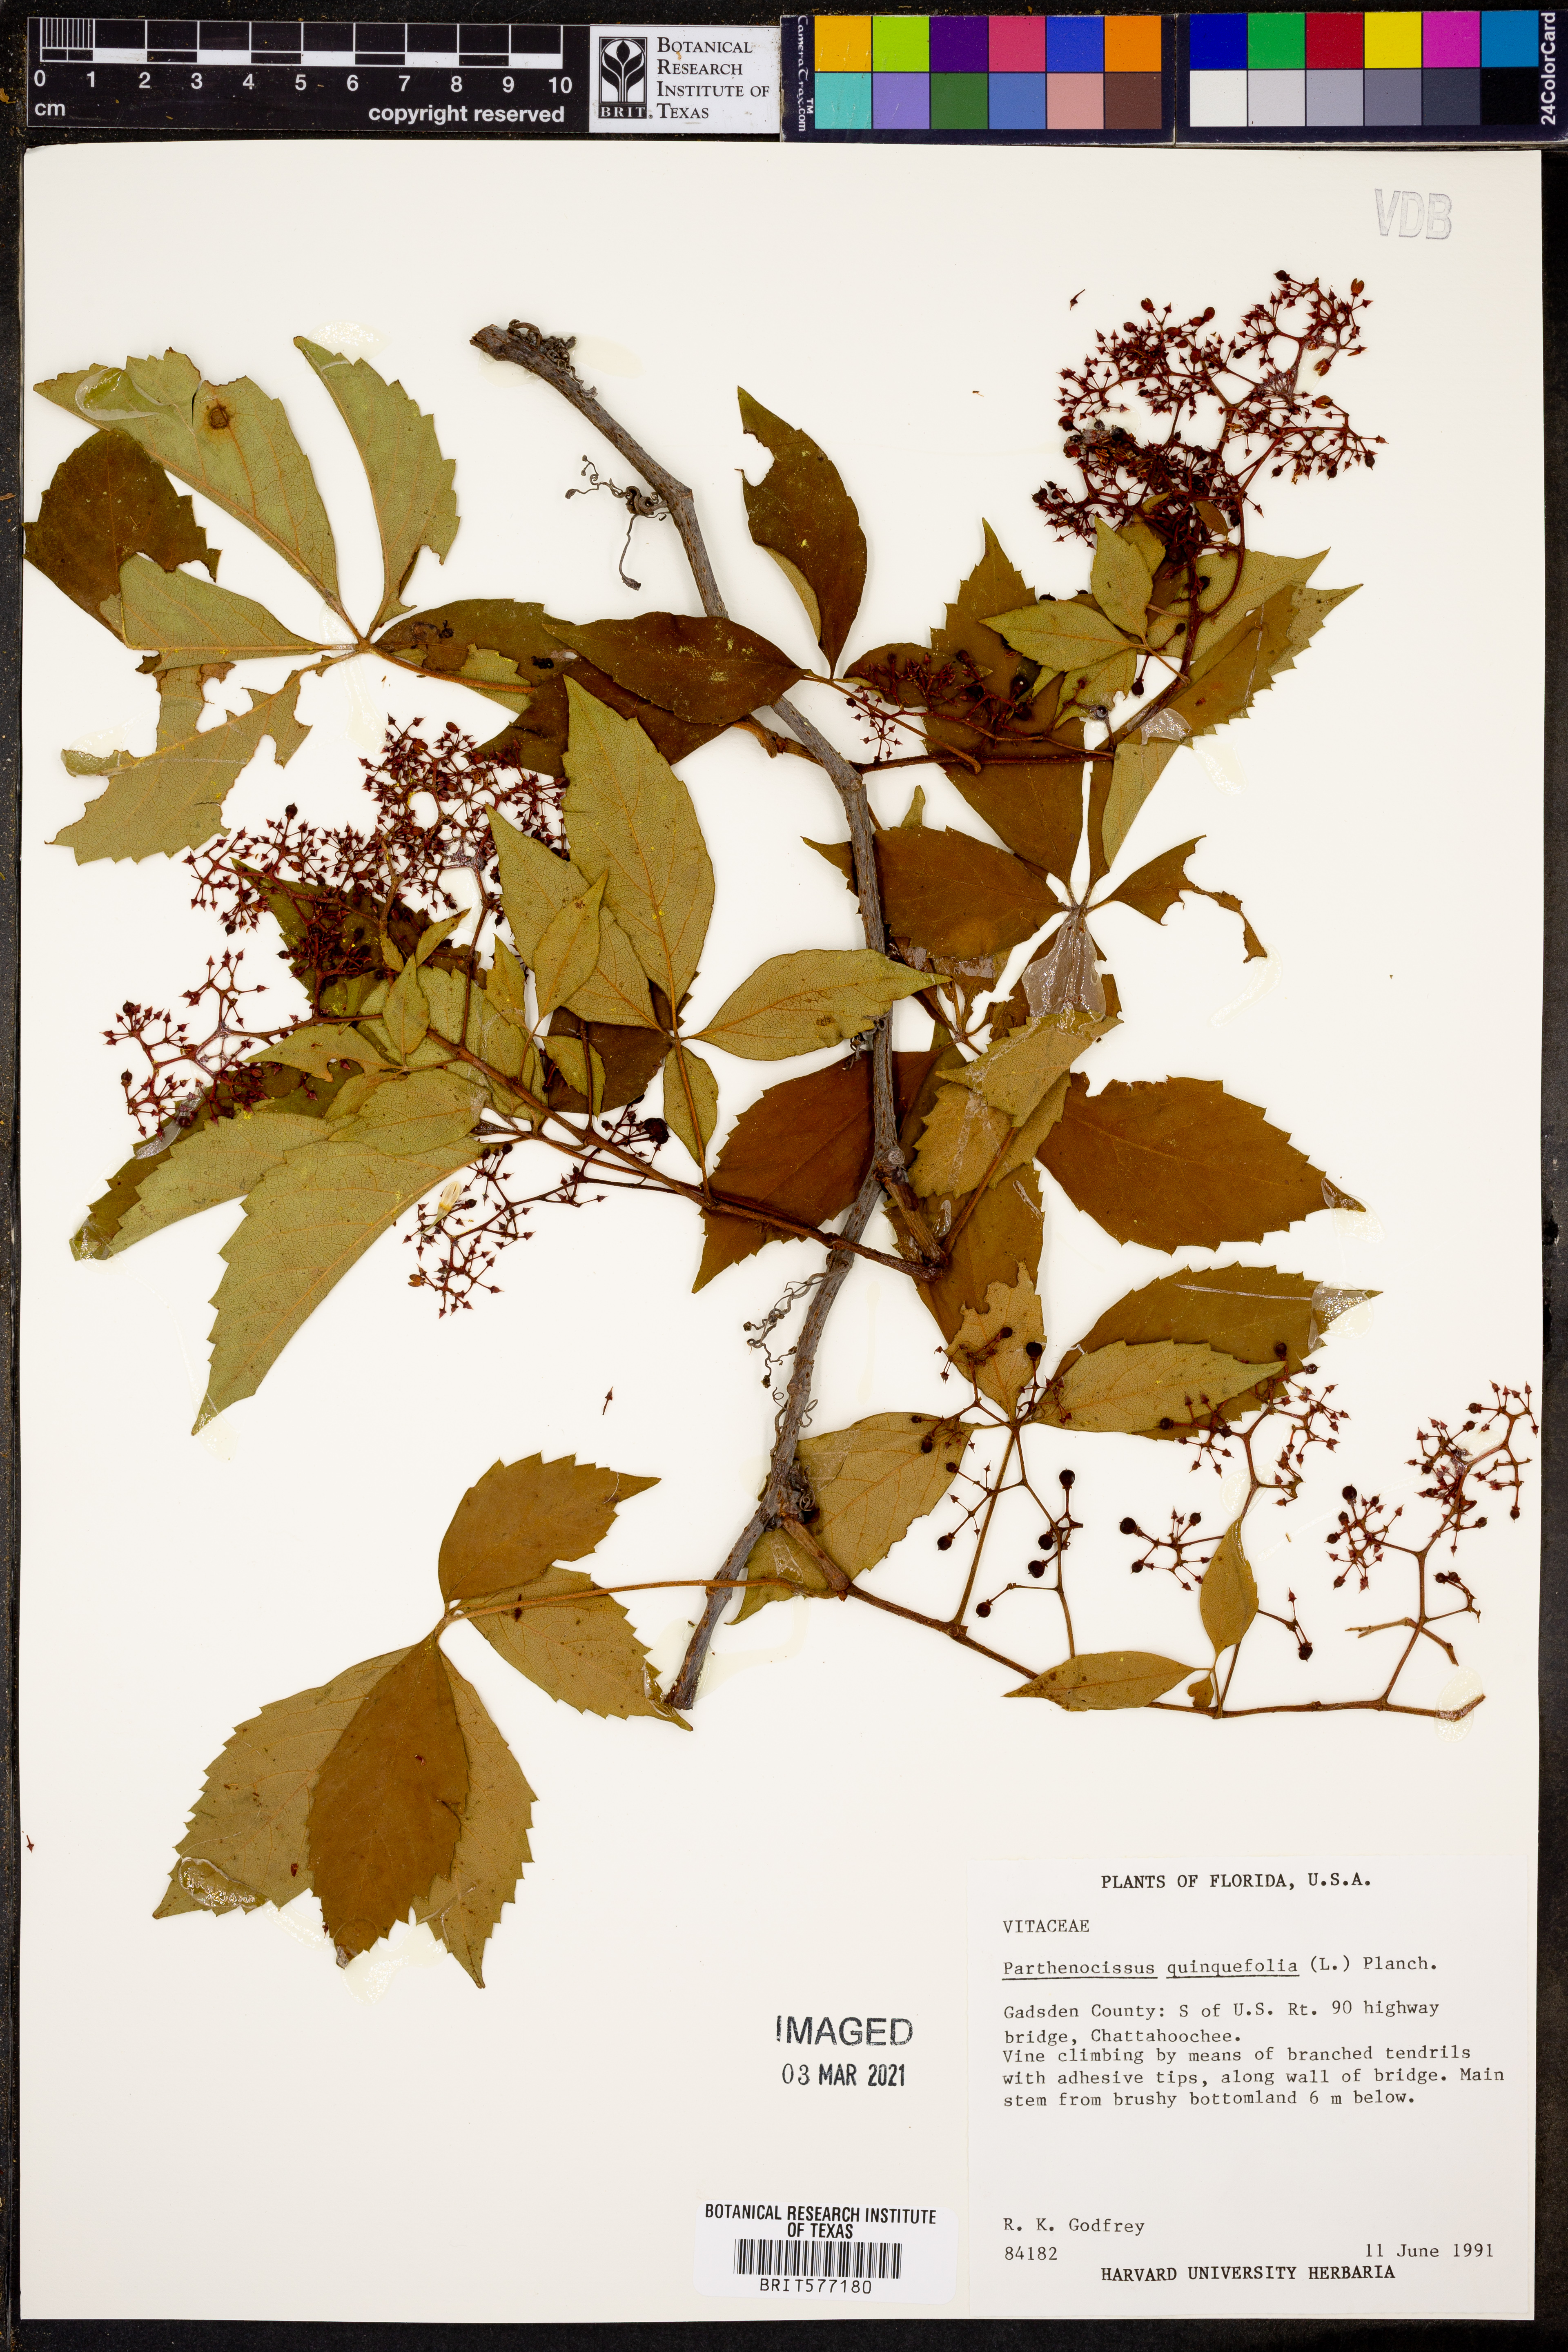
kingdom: Plantae
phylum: Tracheophyta
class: Magnoliopsida
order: Vitales
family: Vitaceae
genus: Parthenocissus
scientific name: Parthenocissus quinquefolia
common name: Virginia-creeper
